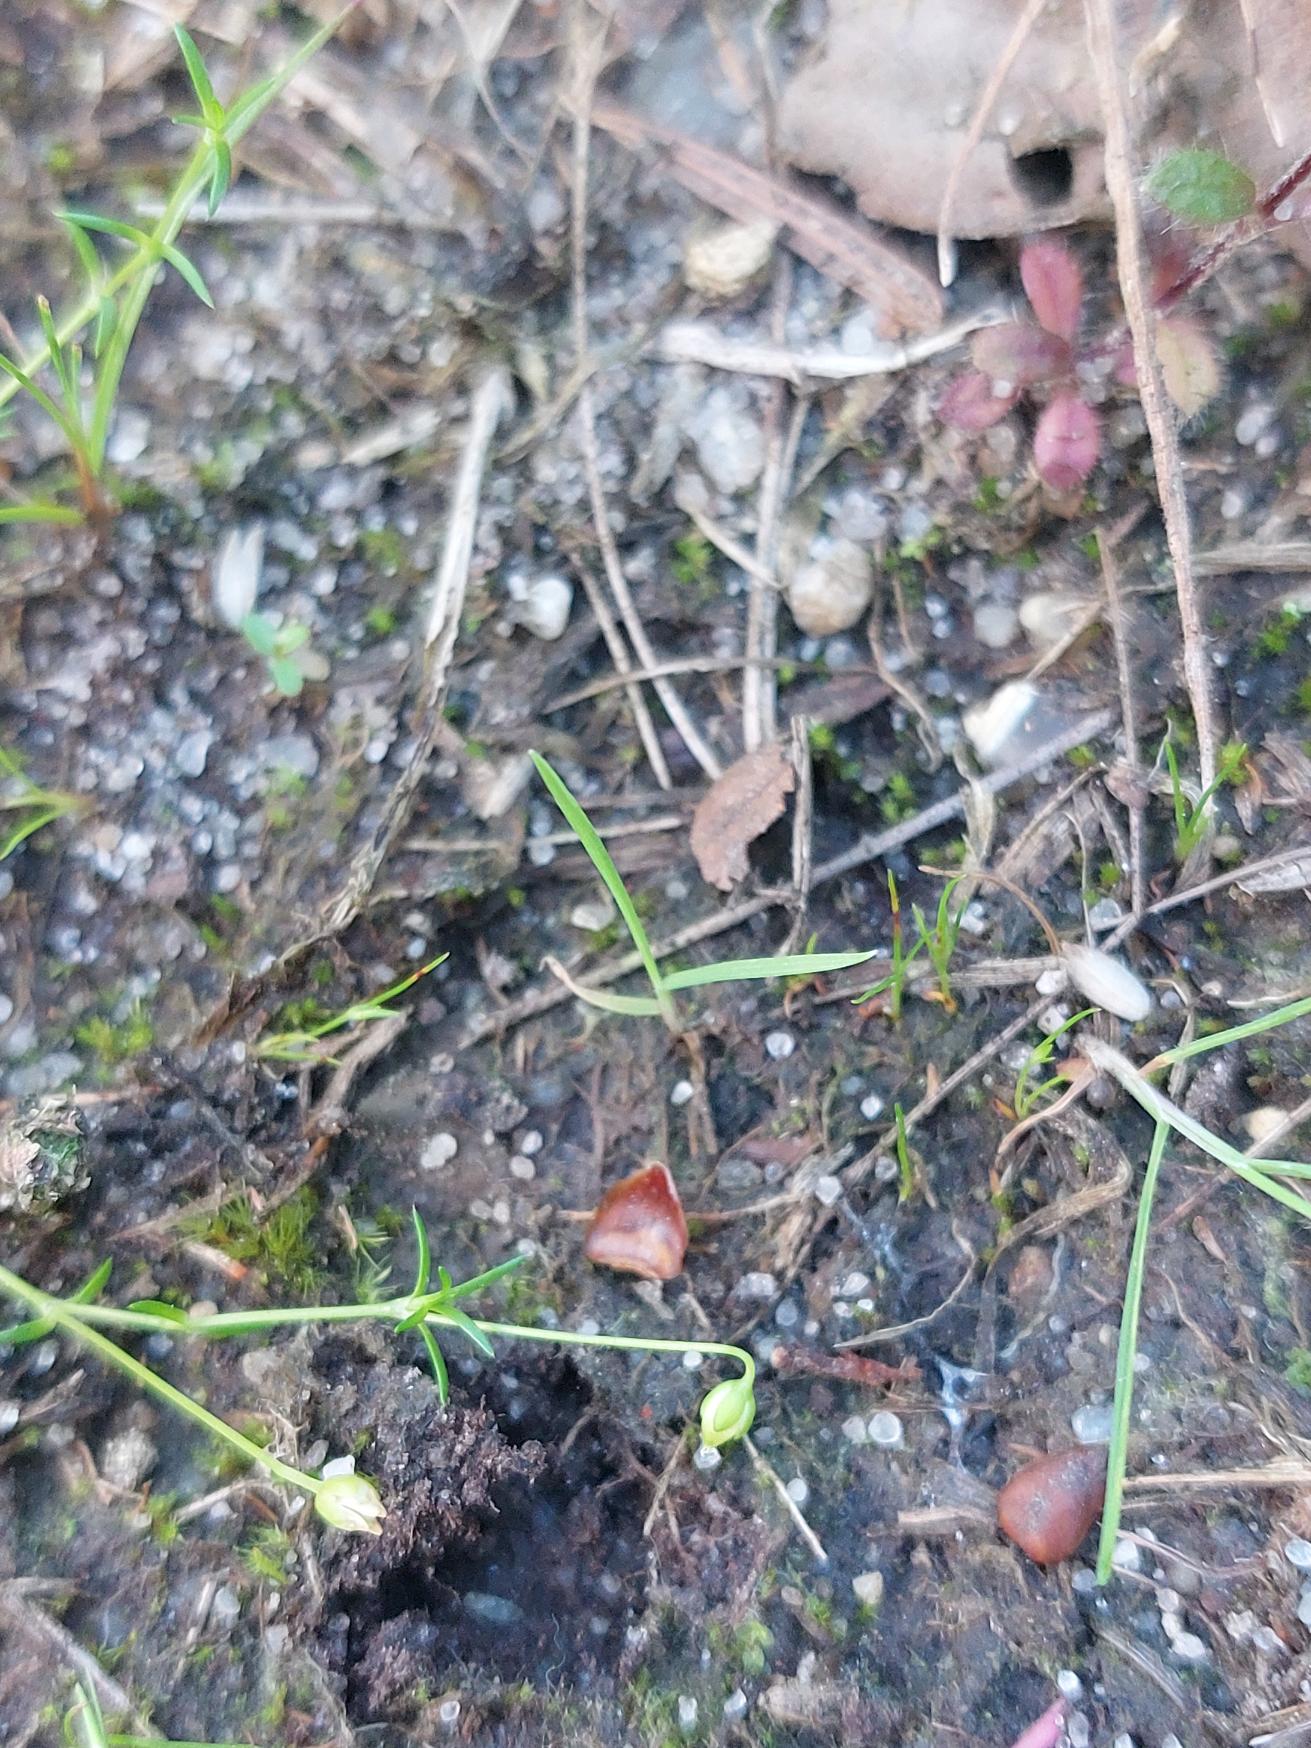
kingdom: Plantae
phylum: Tracheophyta
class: Magnoliopsida
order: Caryophyllales
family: Caryophyllaceae
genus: Sagina
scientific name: Sagina procumbens
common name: Almindelig firling
